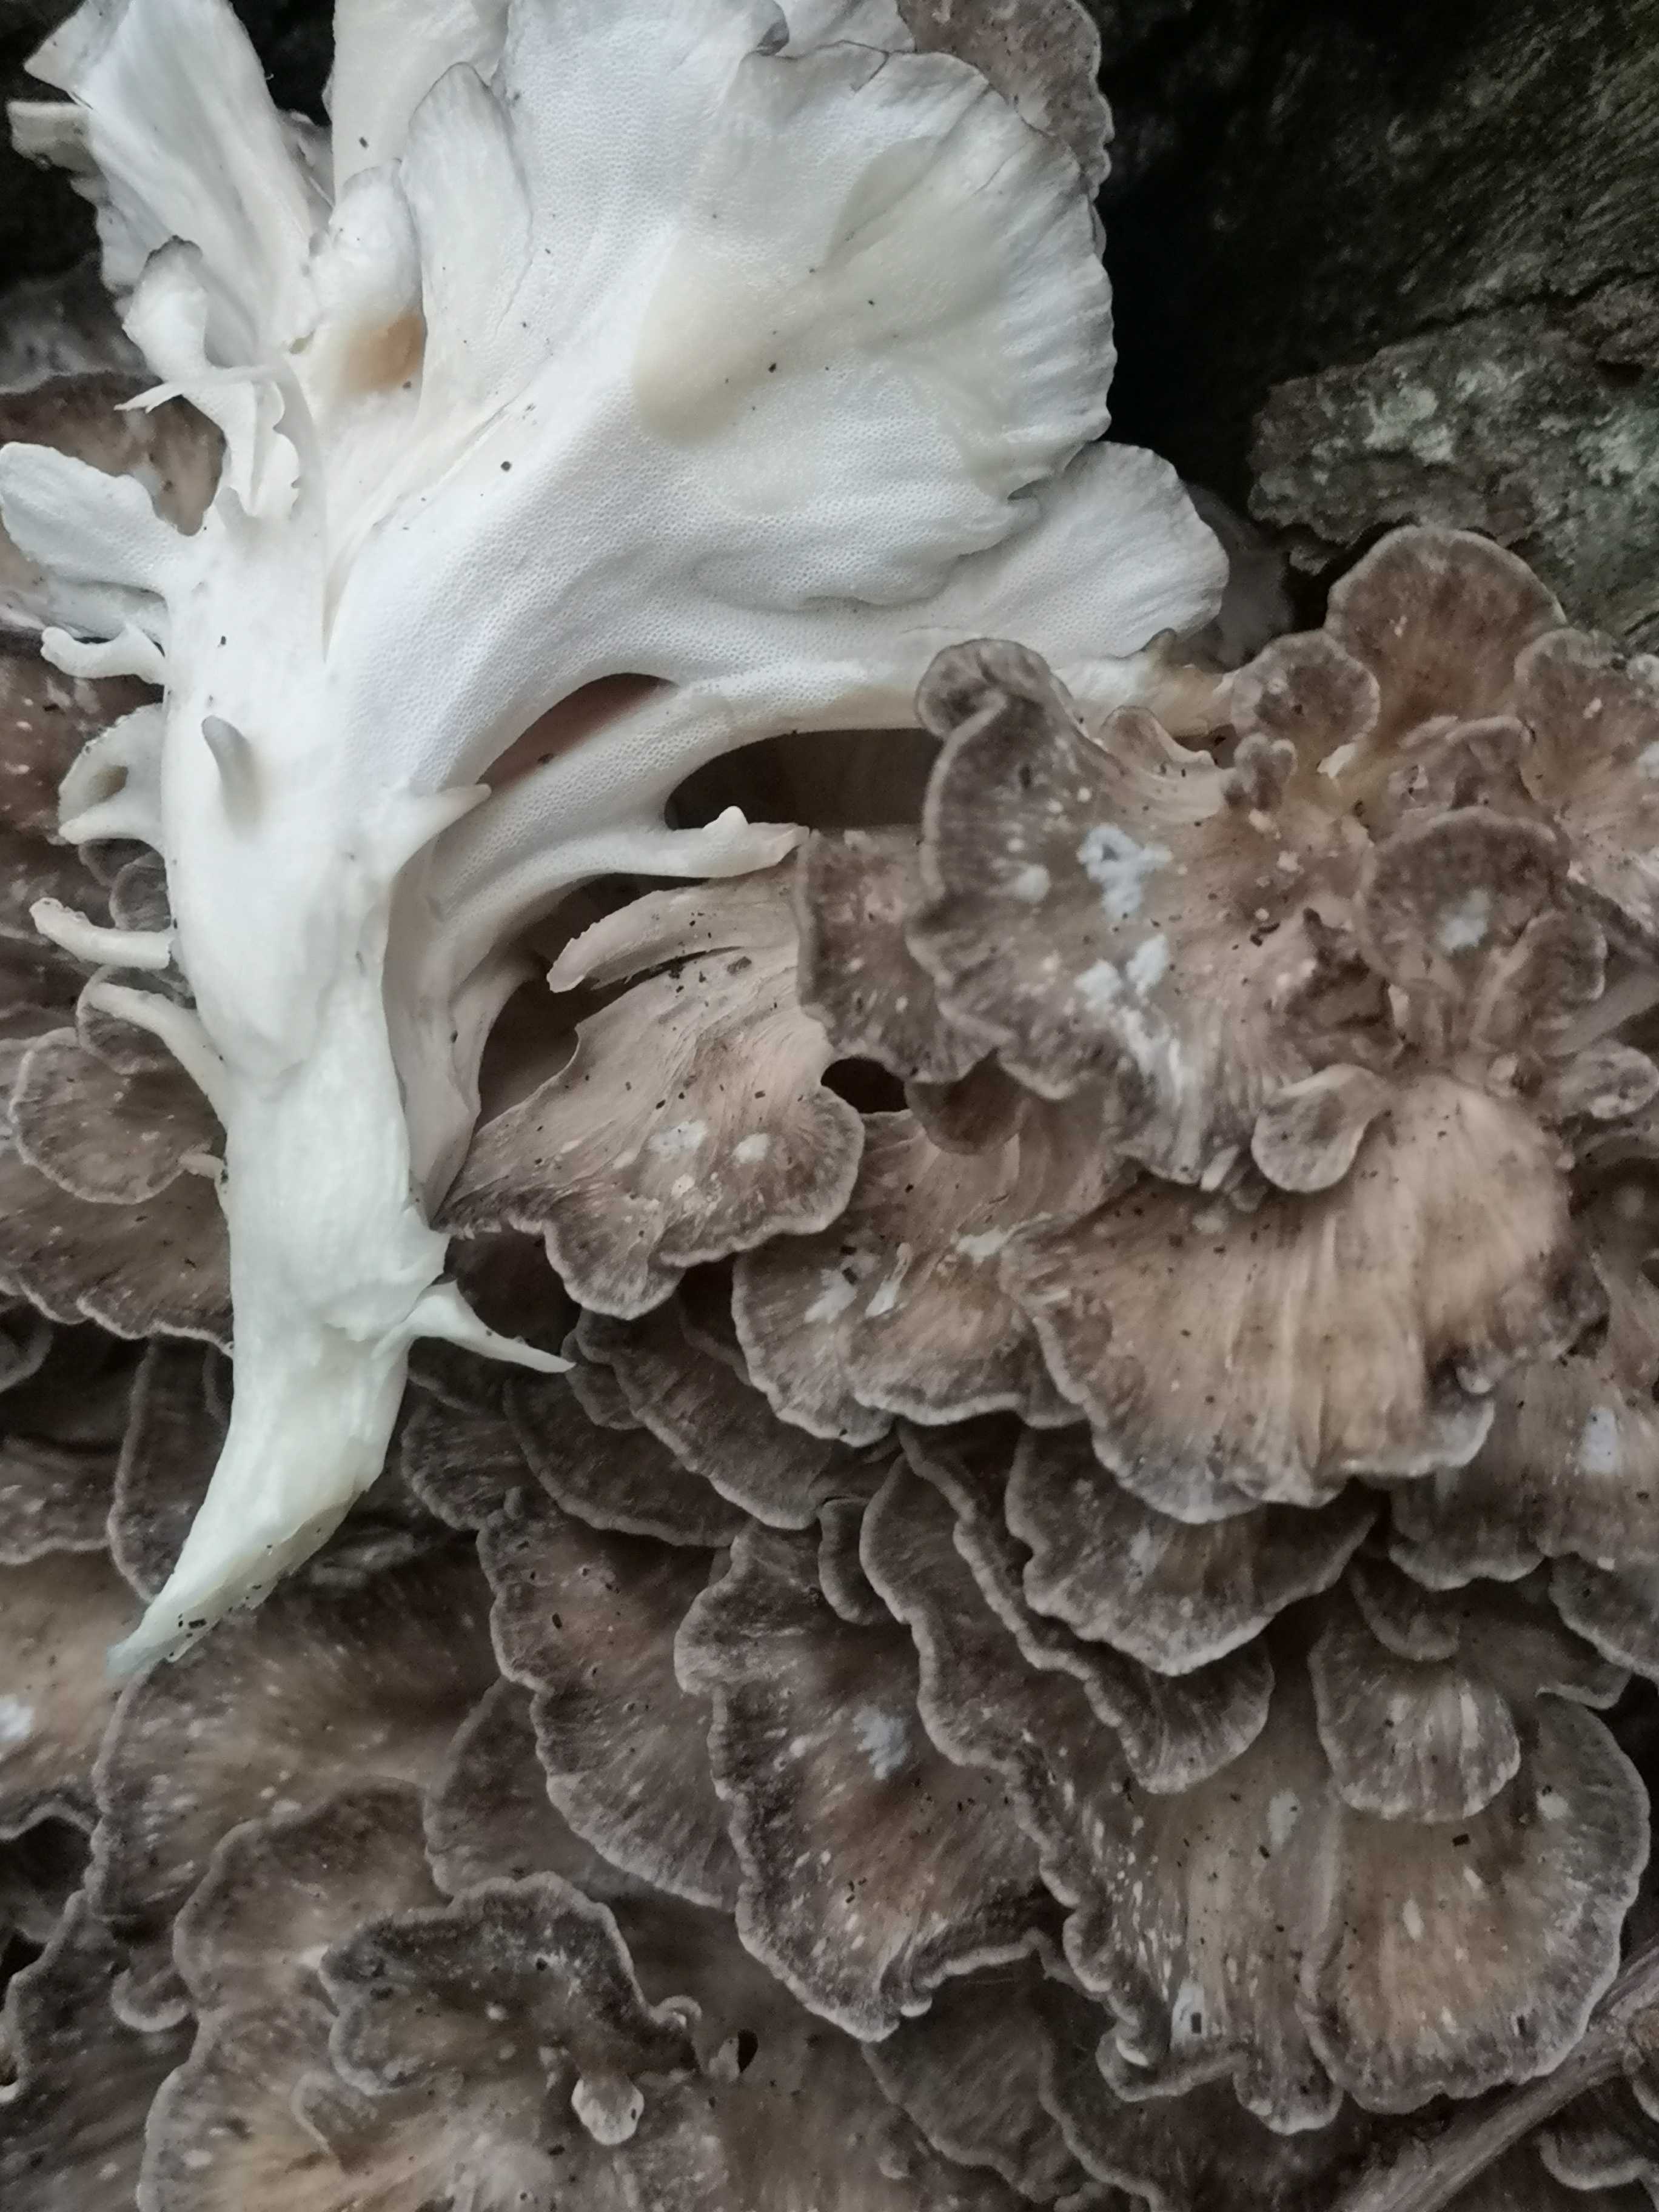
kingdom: Fungi
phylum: Basidiomycota
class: Agaricomycetes
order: Polyporales
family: Grifolaceae
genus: Grifola
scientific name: Grifola frondosa
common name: tueporesvamp
